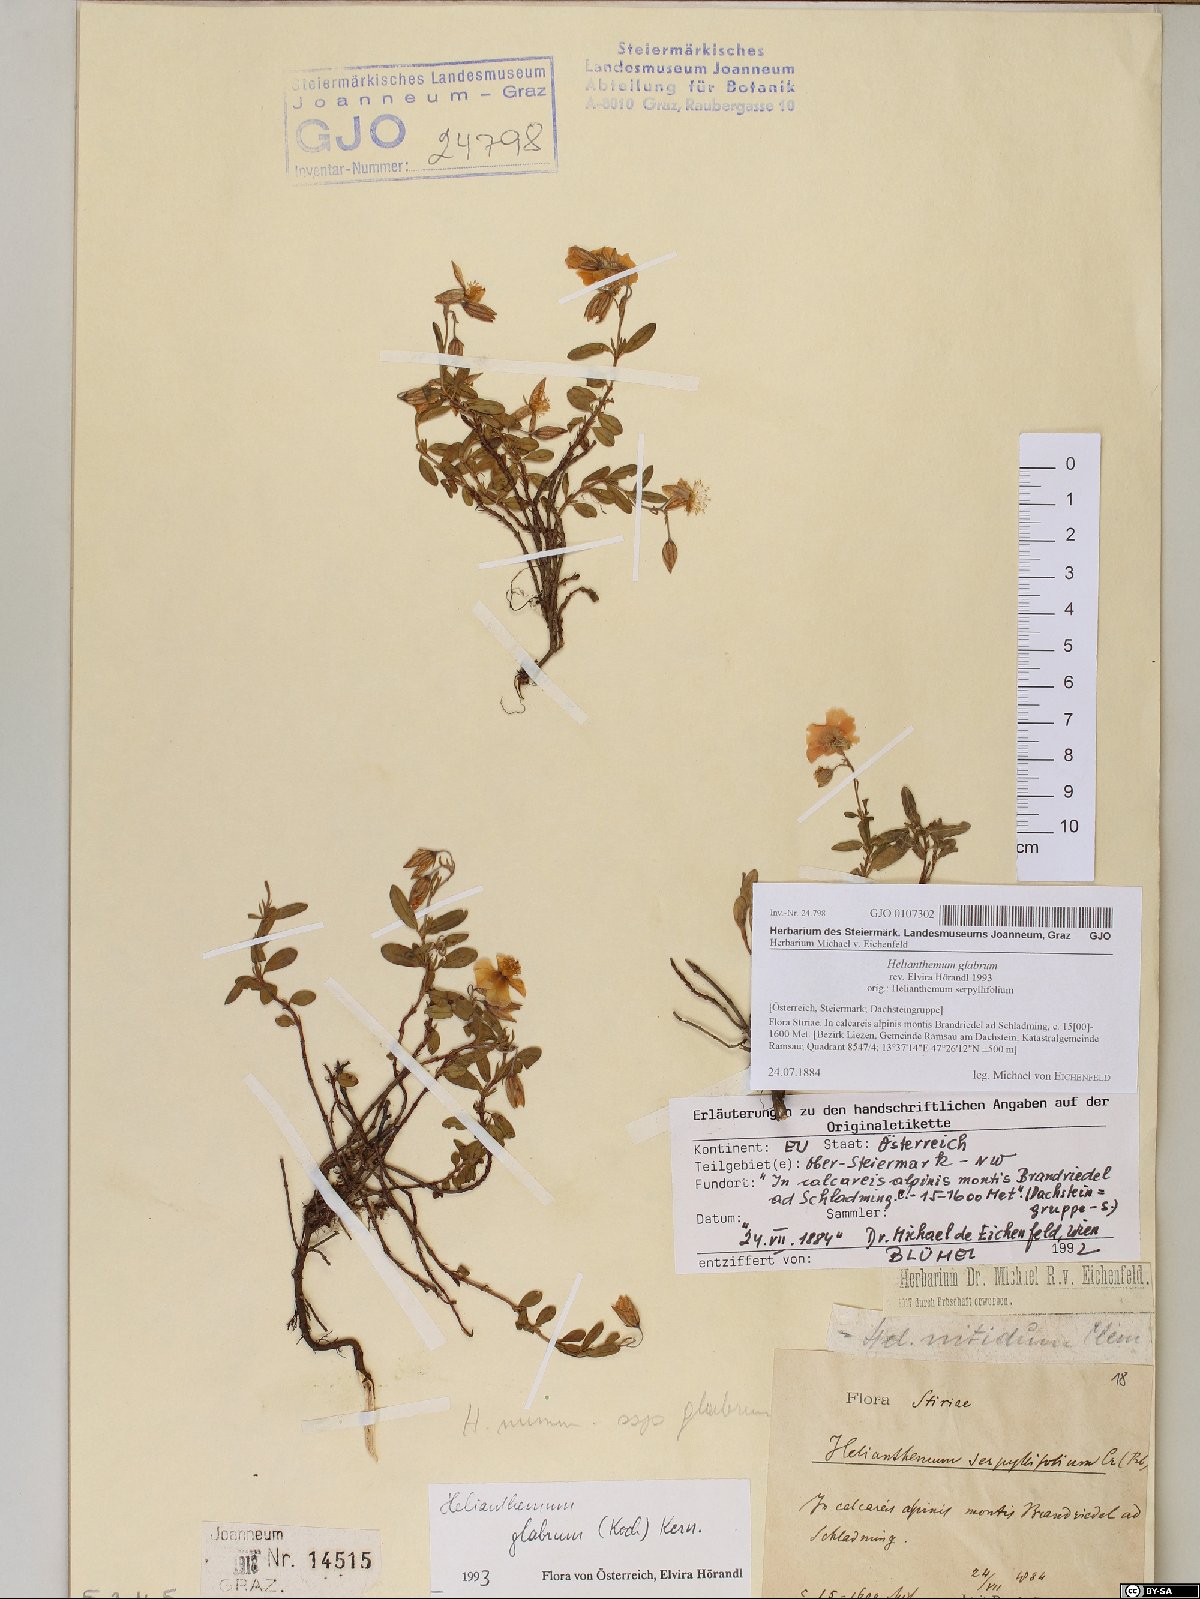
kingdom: Plantae
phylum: Tracheophyta
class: Magnoliopsida
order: Malvales
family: Cistaceae
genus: Helianthemum
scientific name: Helianthemum nummularium
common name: Common rock-rose
